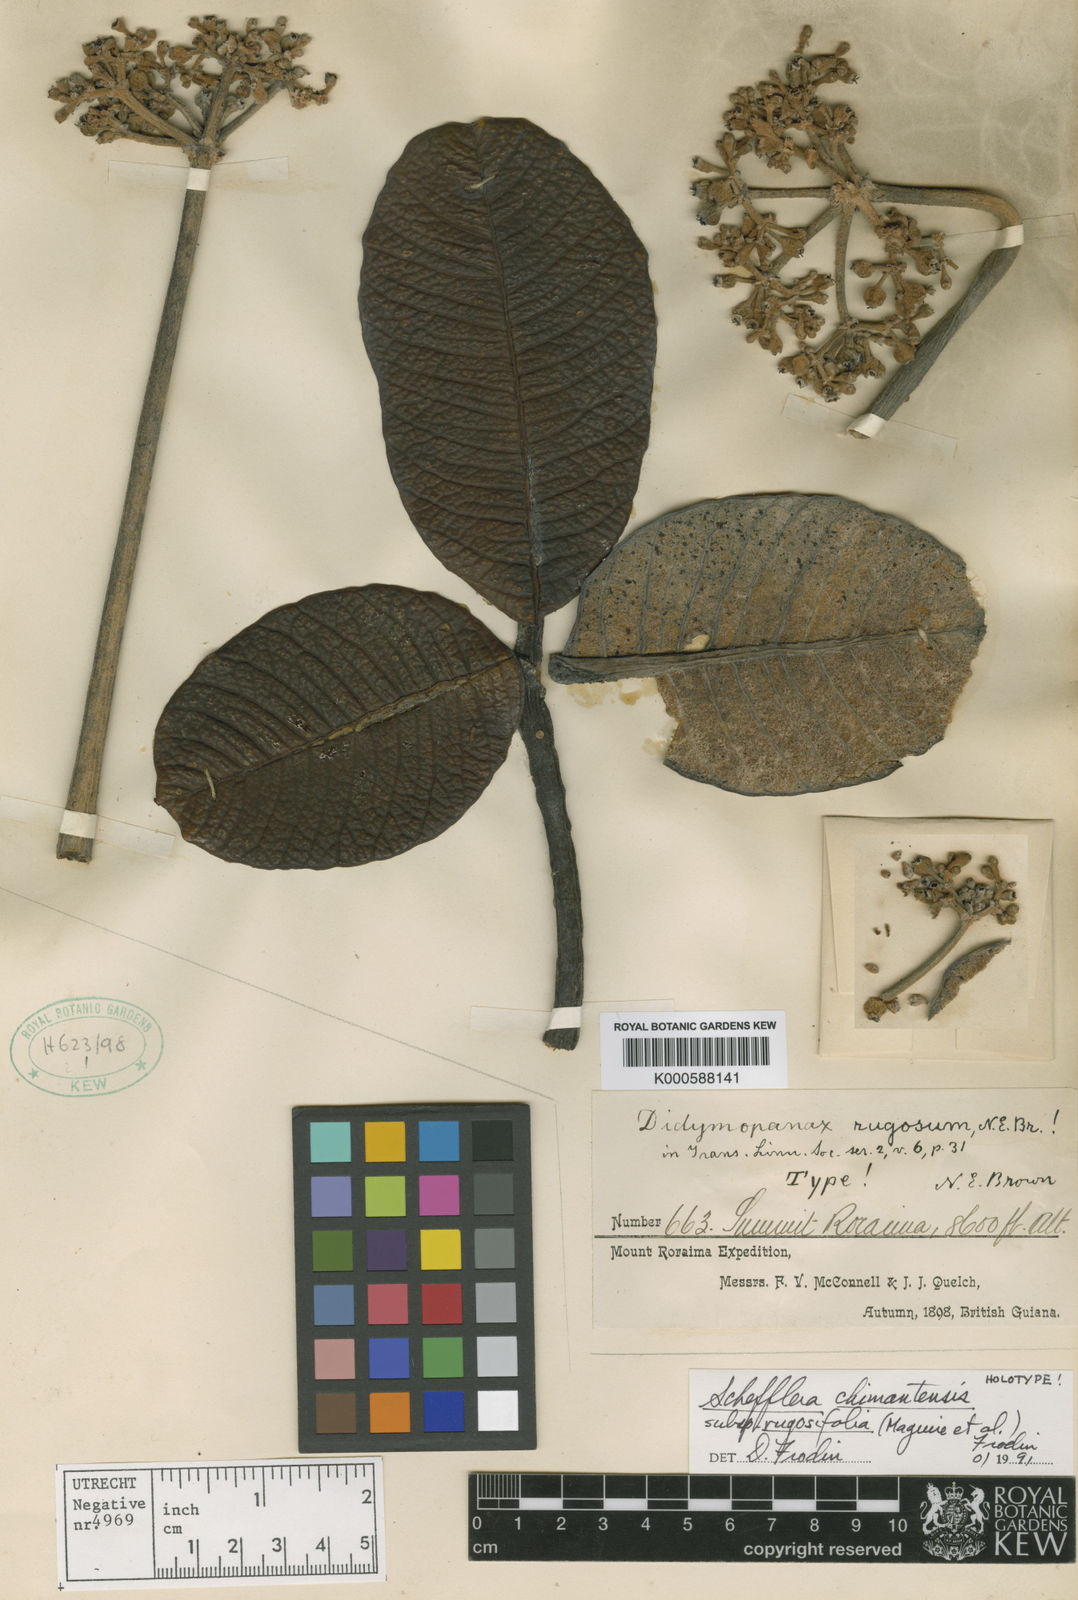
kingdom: Plantae
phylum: Tracheophyta
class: Magnoliopsida
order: Apiales
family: Araliaceae
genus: Crepinella
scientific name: Crepinella
